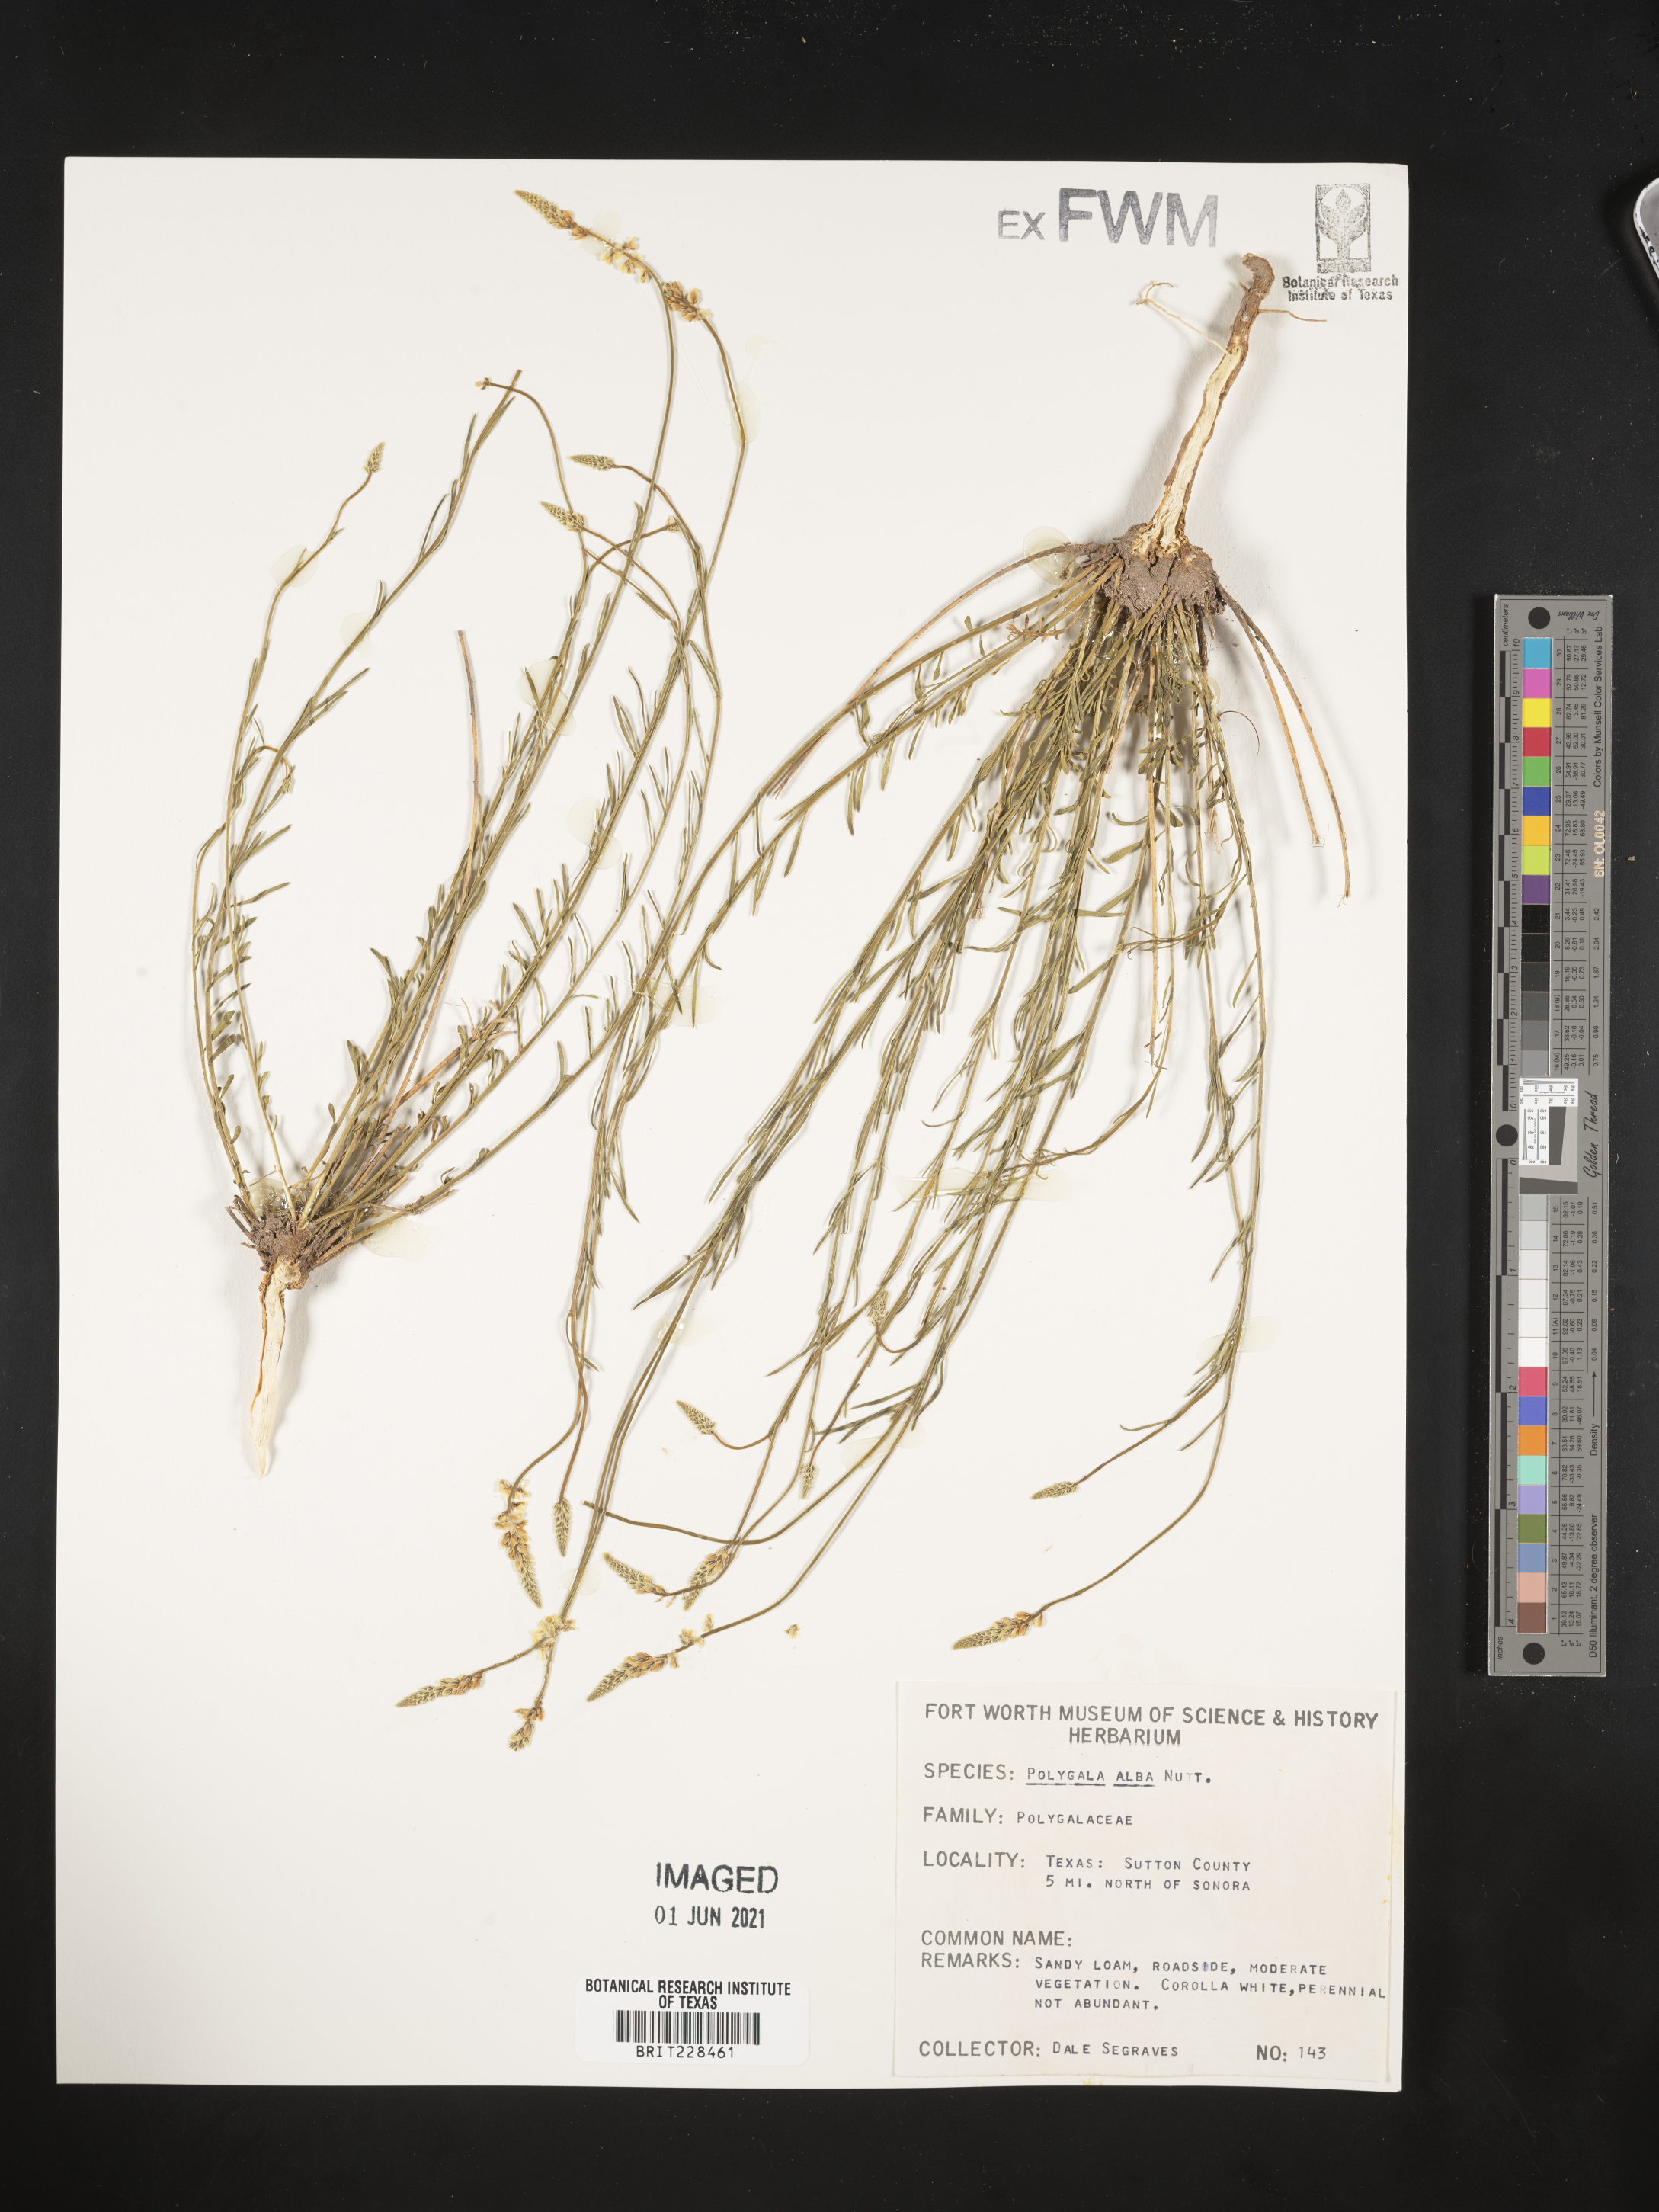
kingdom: Plantae
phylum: Tracheophyta
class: Magnoliopsida
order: Fabales
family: Polygalaceae
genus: Polygala
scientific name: Polygala alba
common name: White milkwort
